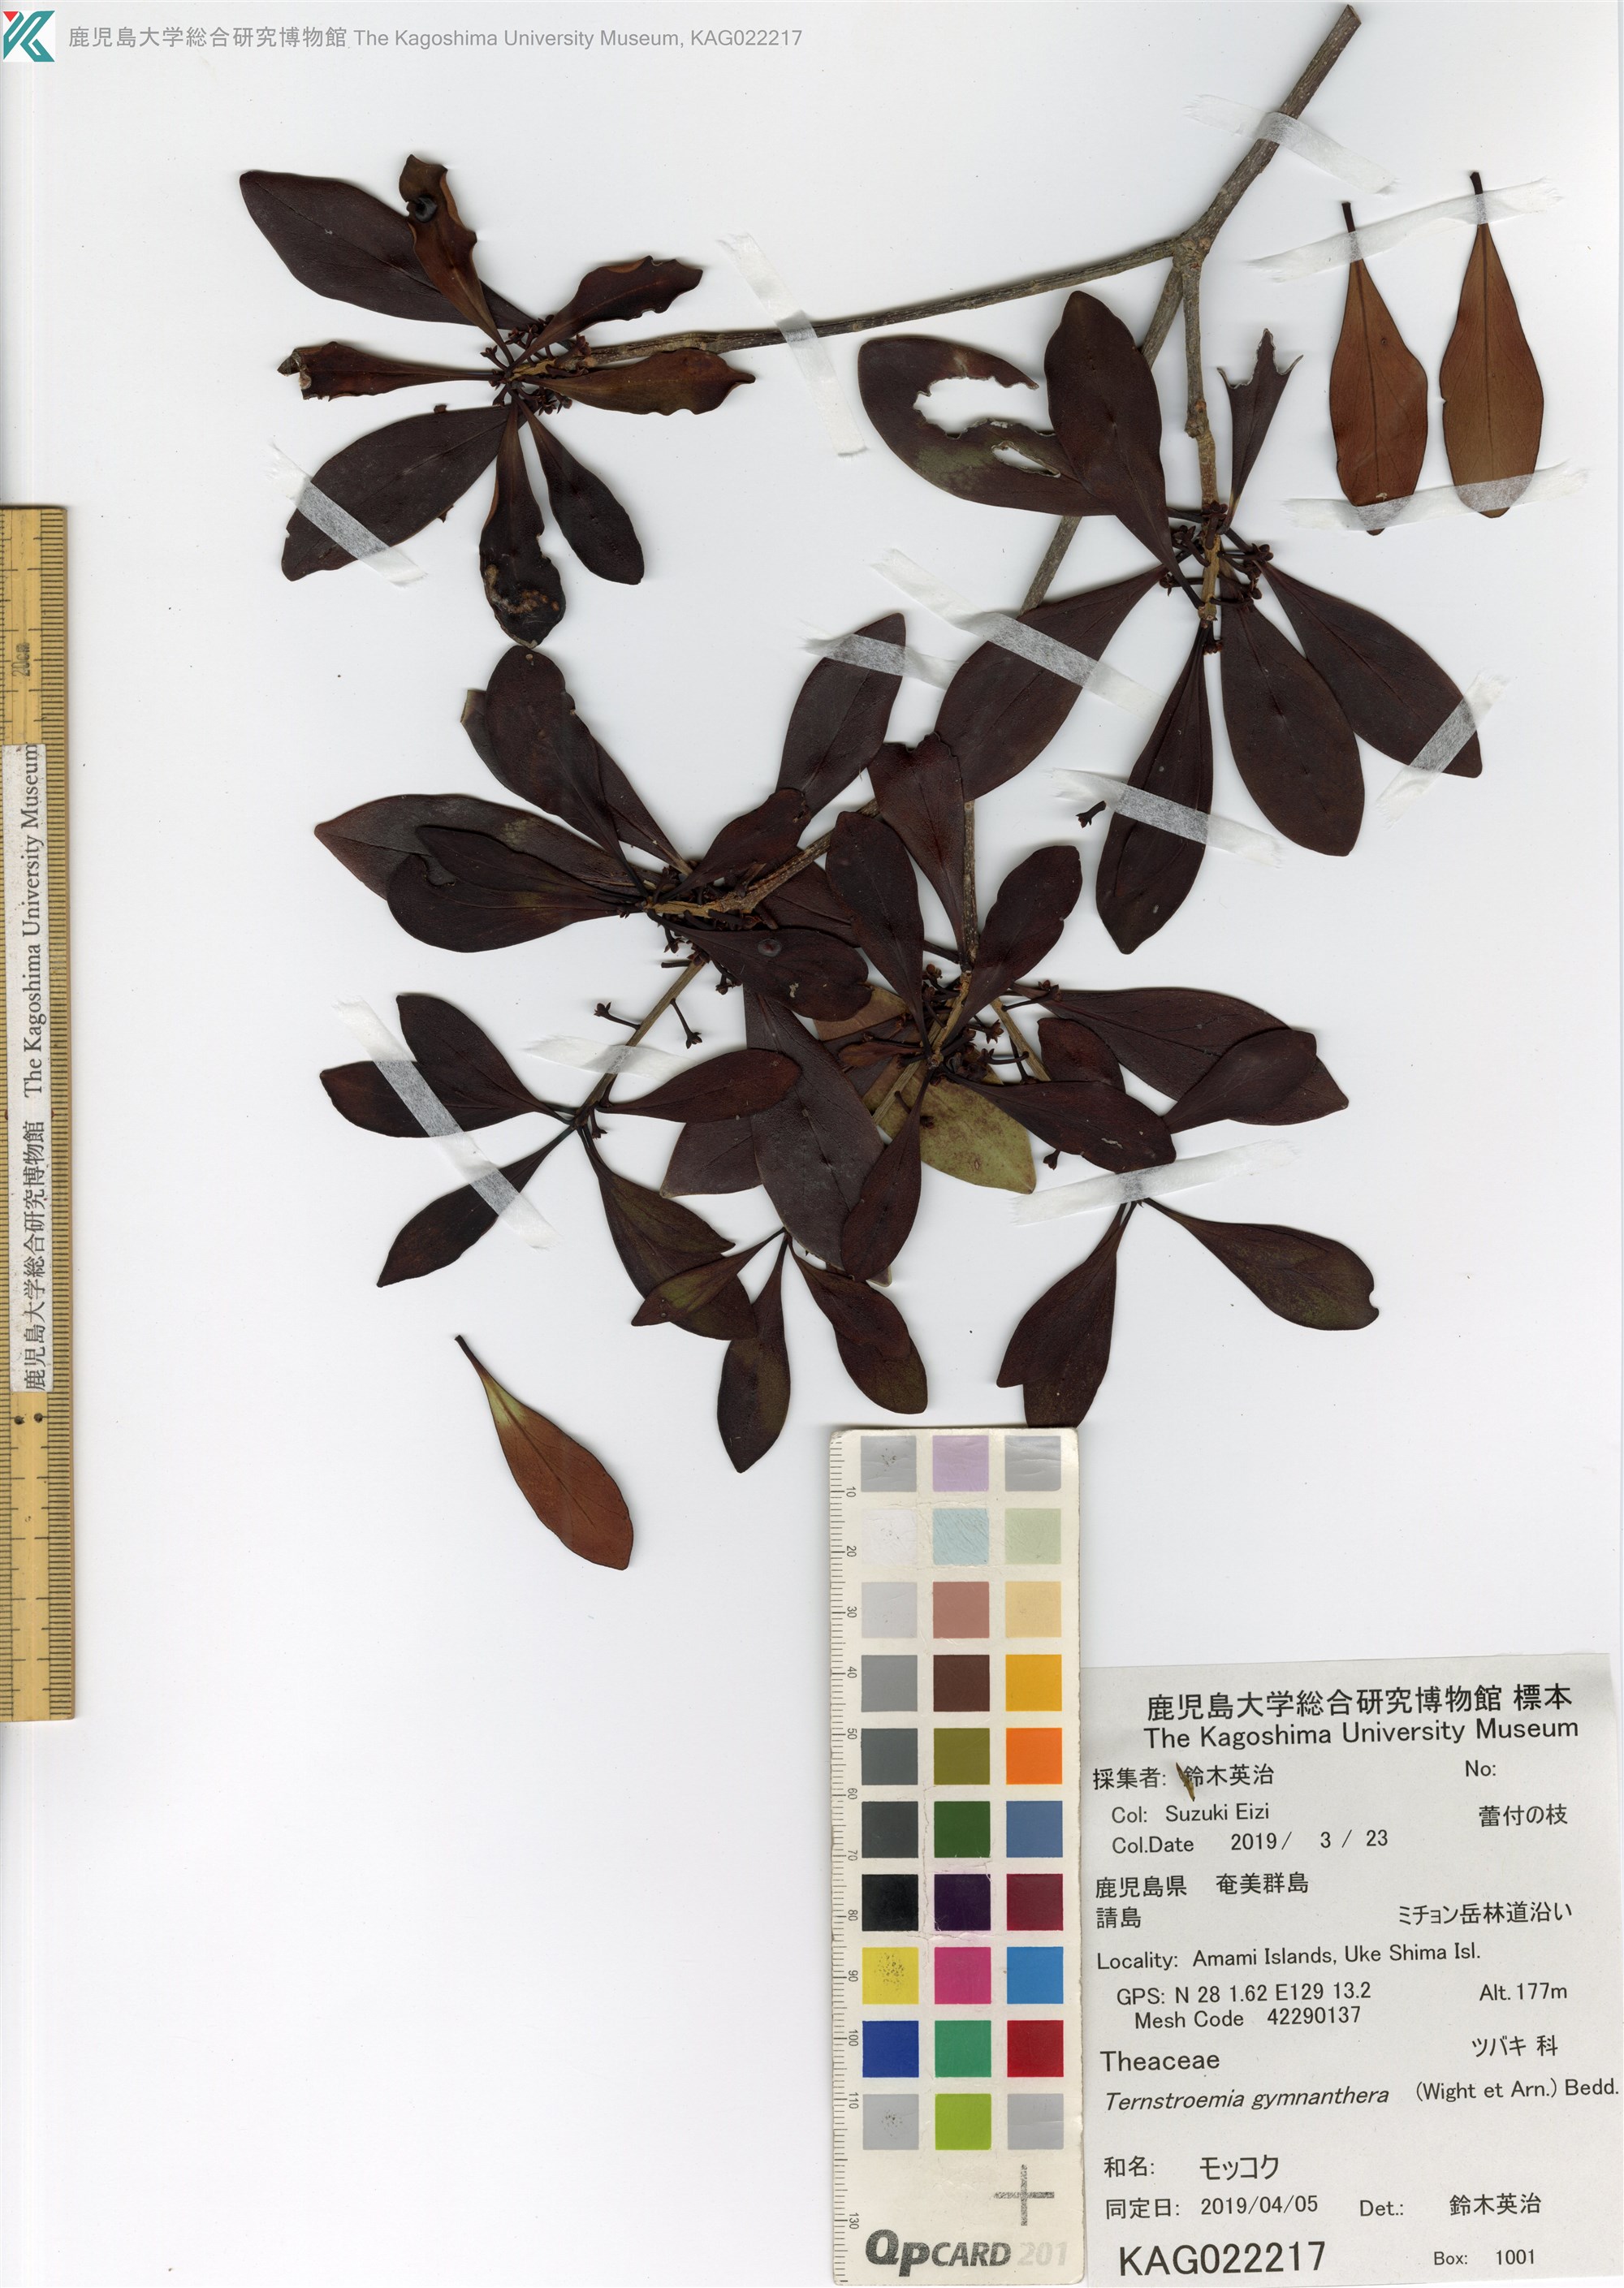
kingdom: Plantae
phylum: Tracheophyta
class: Magnoliopsida
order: Ericales
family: Pentaphylacaceae
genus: Ternstroemia
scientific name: Ternstroemia gymnanthera
